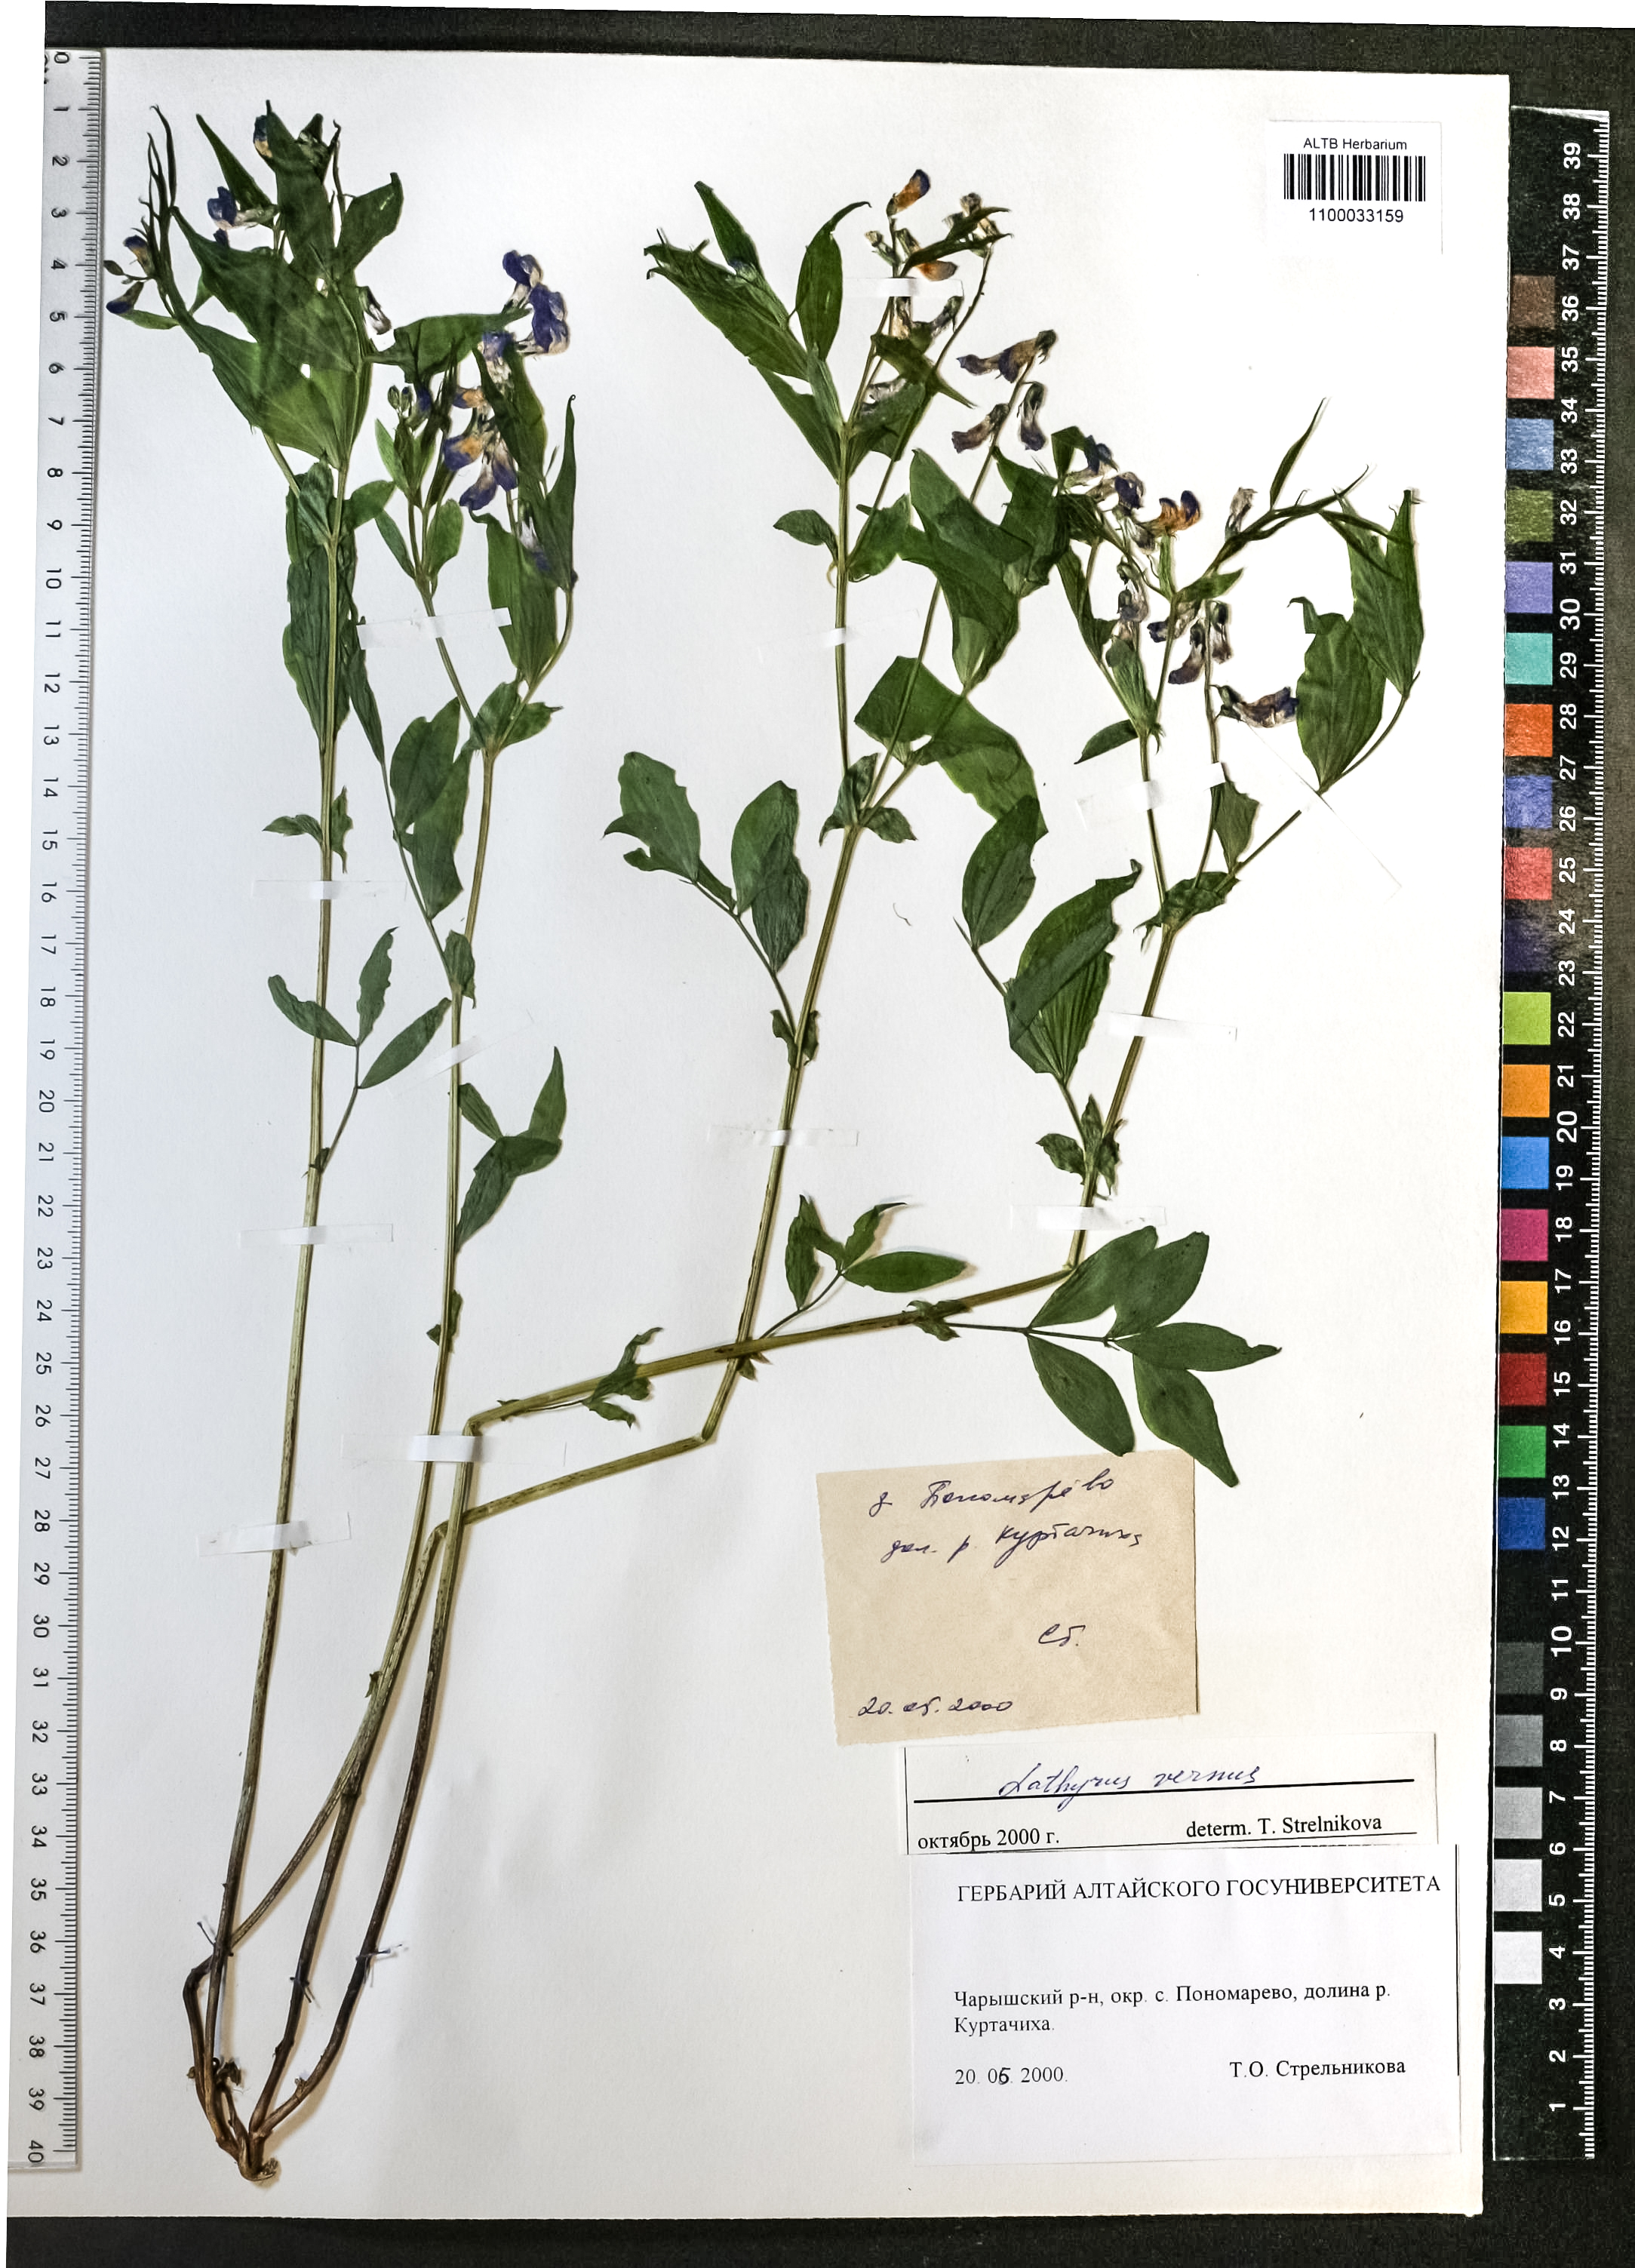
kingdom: Plantae
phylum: Tracheophyta
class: Magnoliopsida
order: Fabales
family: Fabaceae
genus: Lathyrus
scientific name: Lathyrus vernus
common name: Spring pea
